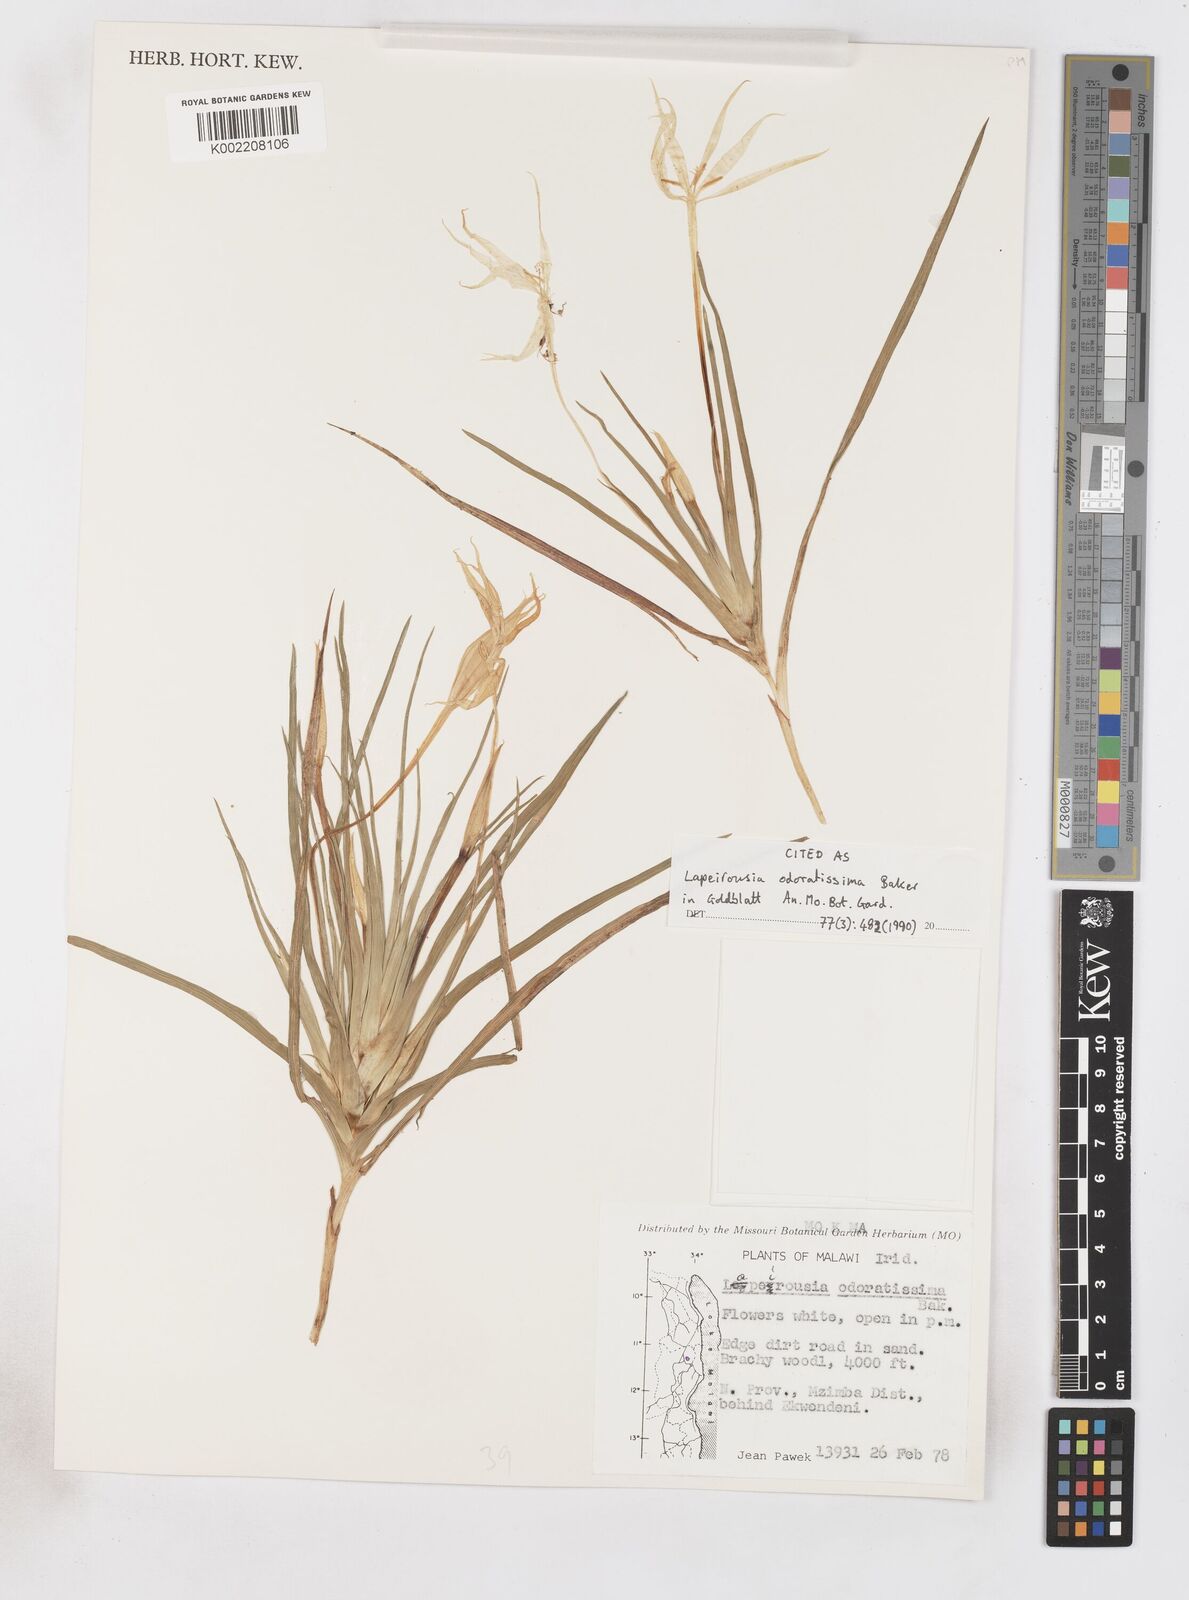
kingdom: Plantae
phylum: Tracheophyta
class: Liliopsida
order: Asparagales
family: Iridaceae
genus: Lapeirousia
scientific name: Lapeirousia odoratissima
